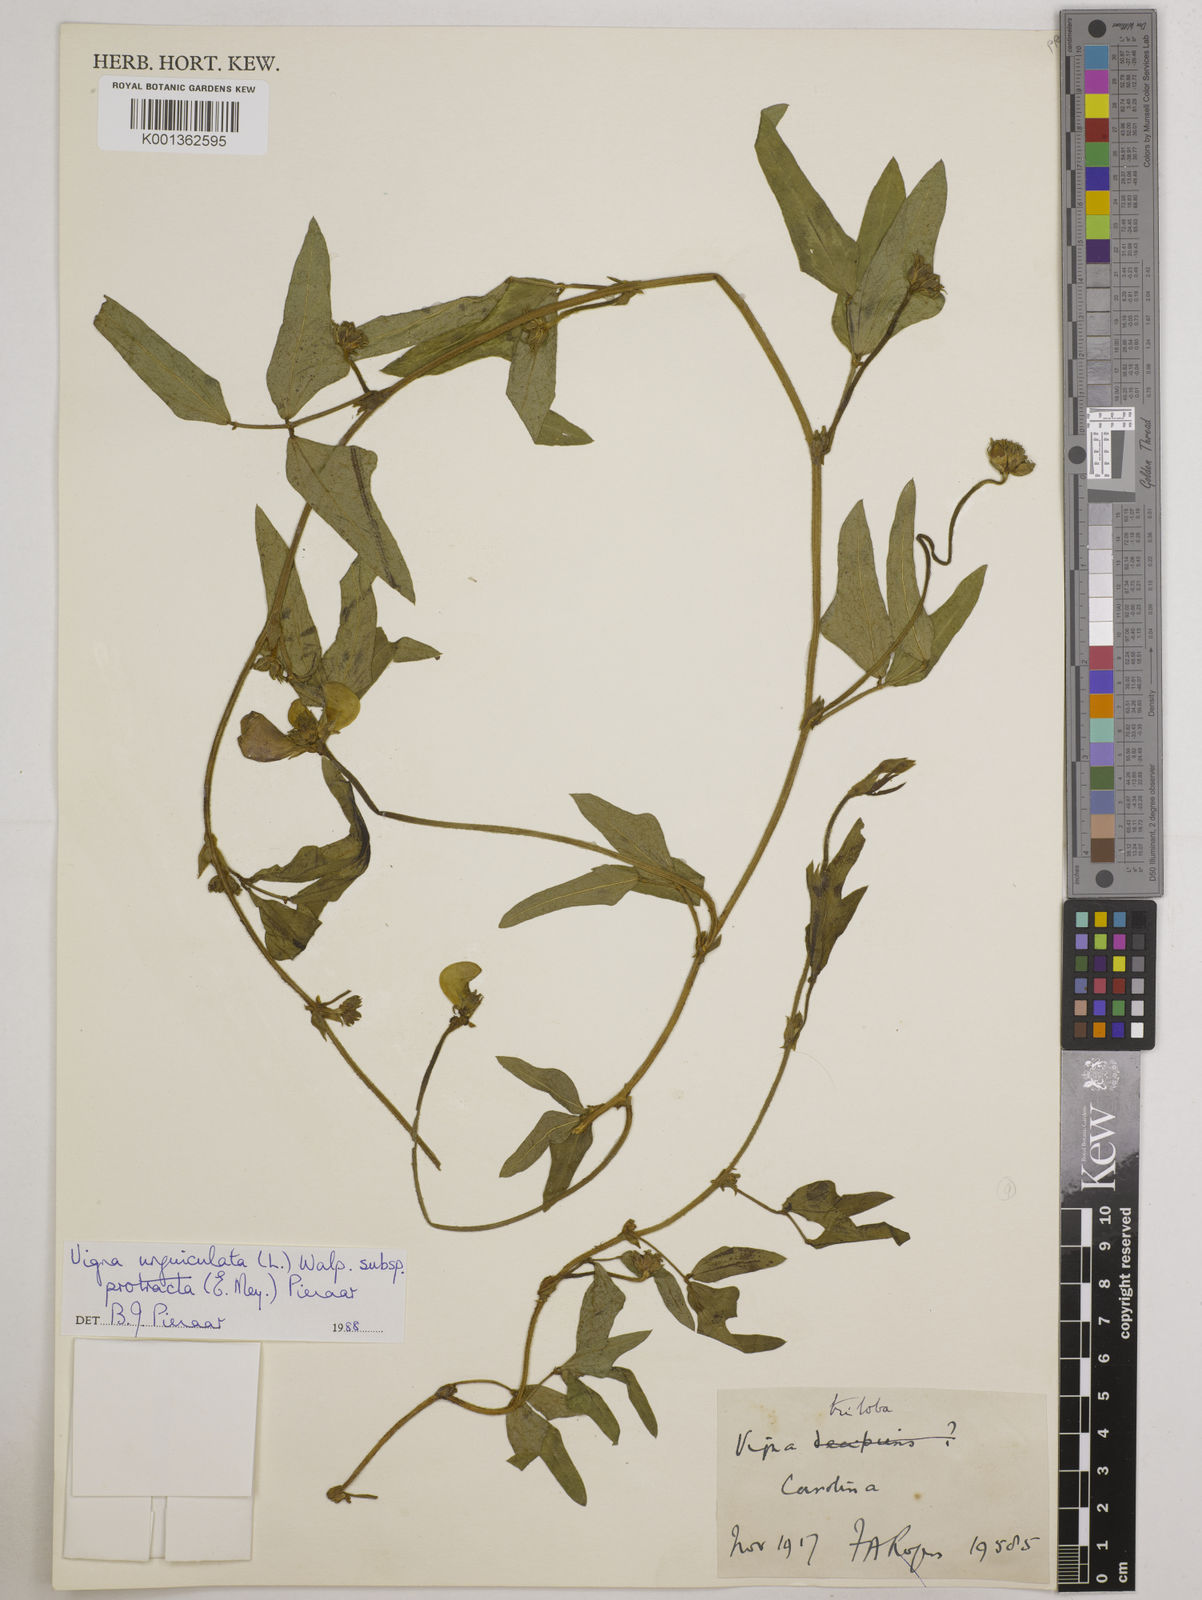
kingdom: Plantae
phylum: Tracheophyta
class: Magnoliopsida
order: Fabales
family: Fabaceae
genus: Vigna
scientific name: Vigna unguiculata
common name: Cowpea
